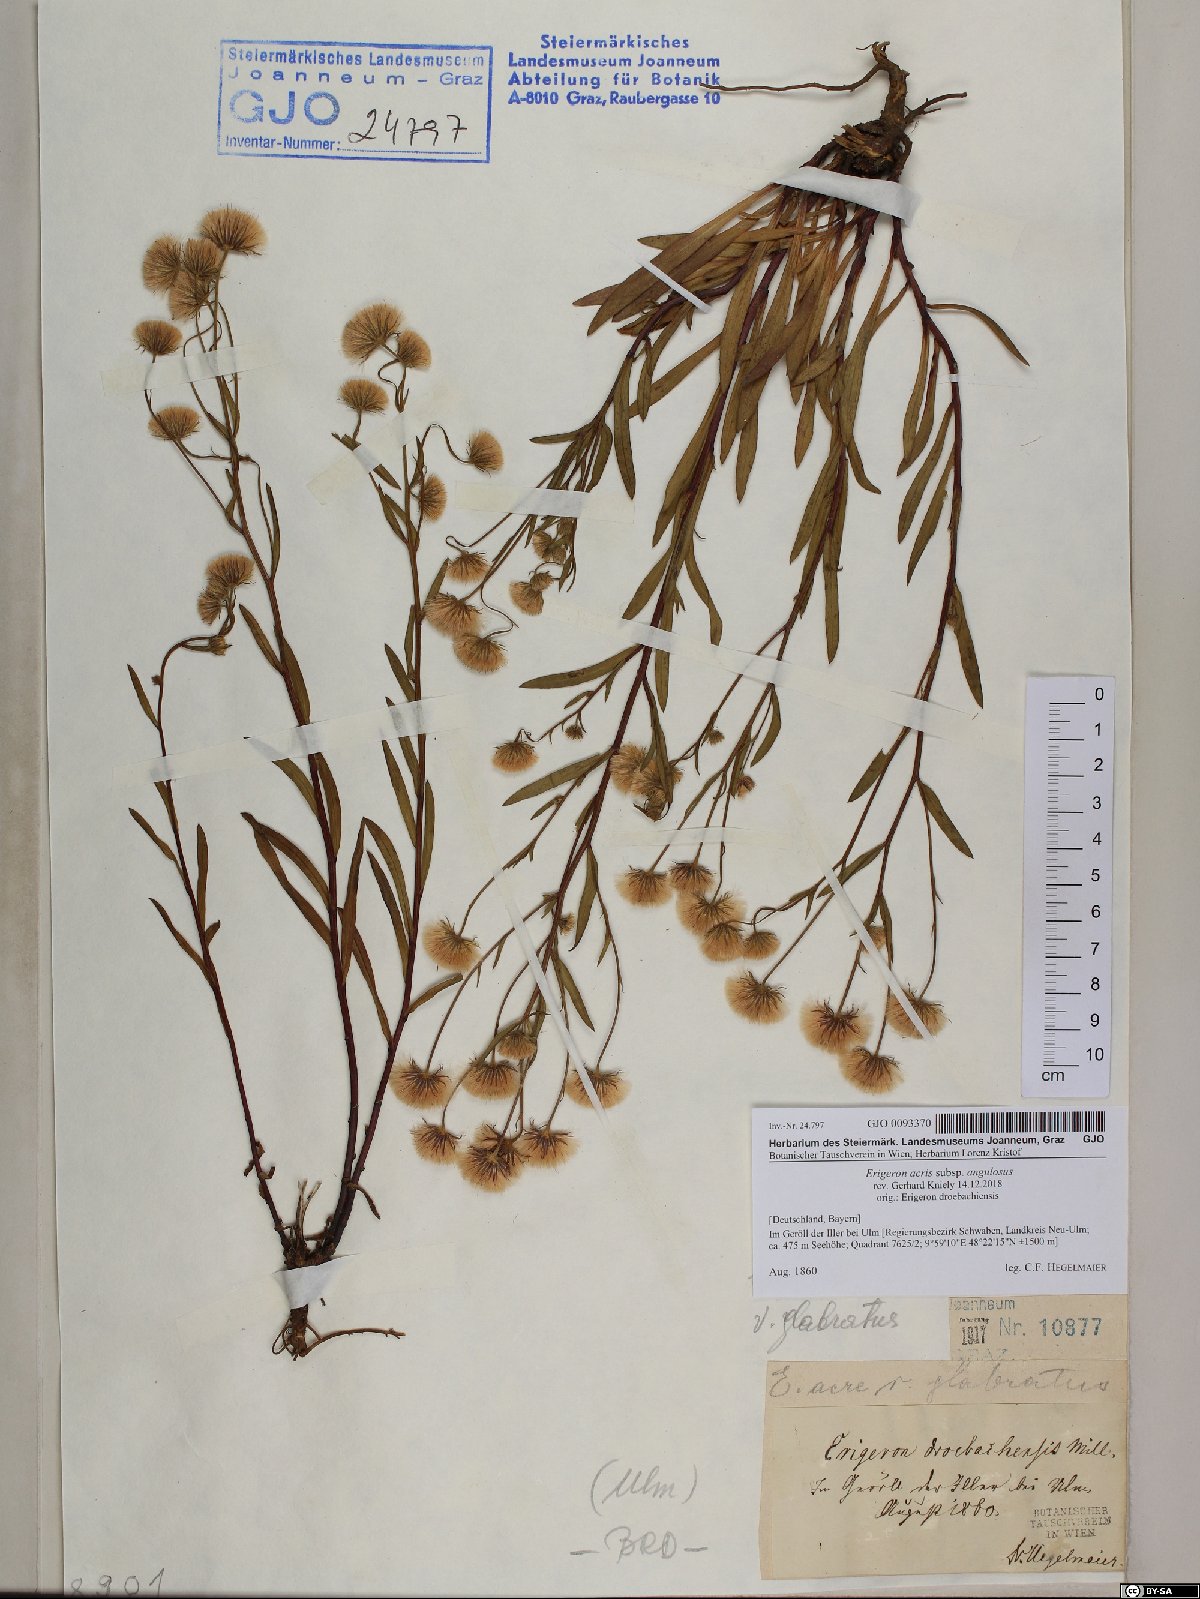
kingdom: Plantae
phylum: Tracheophyta
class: Magnoliopsida
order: Asterales
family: Asteraceae
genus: Erigeron
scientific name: Erigeron angulosus
